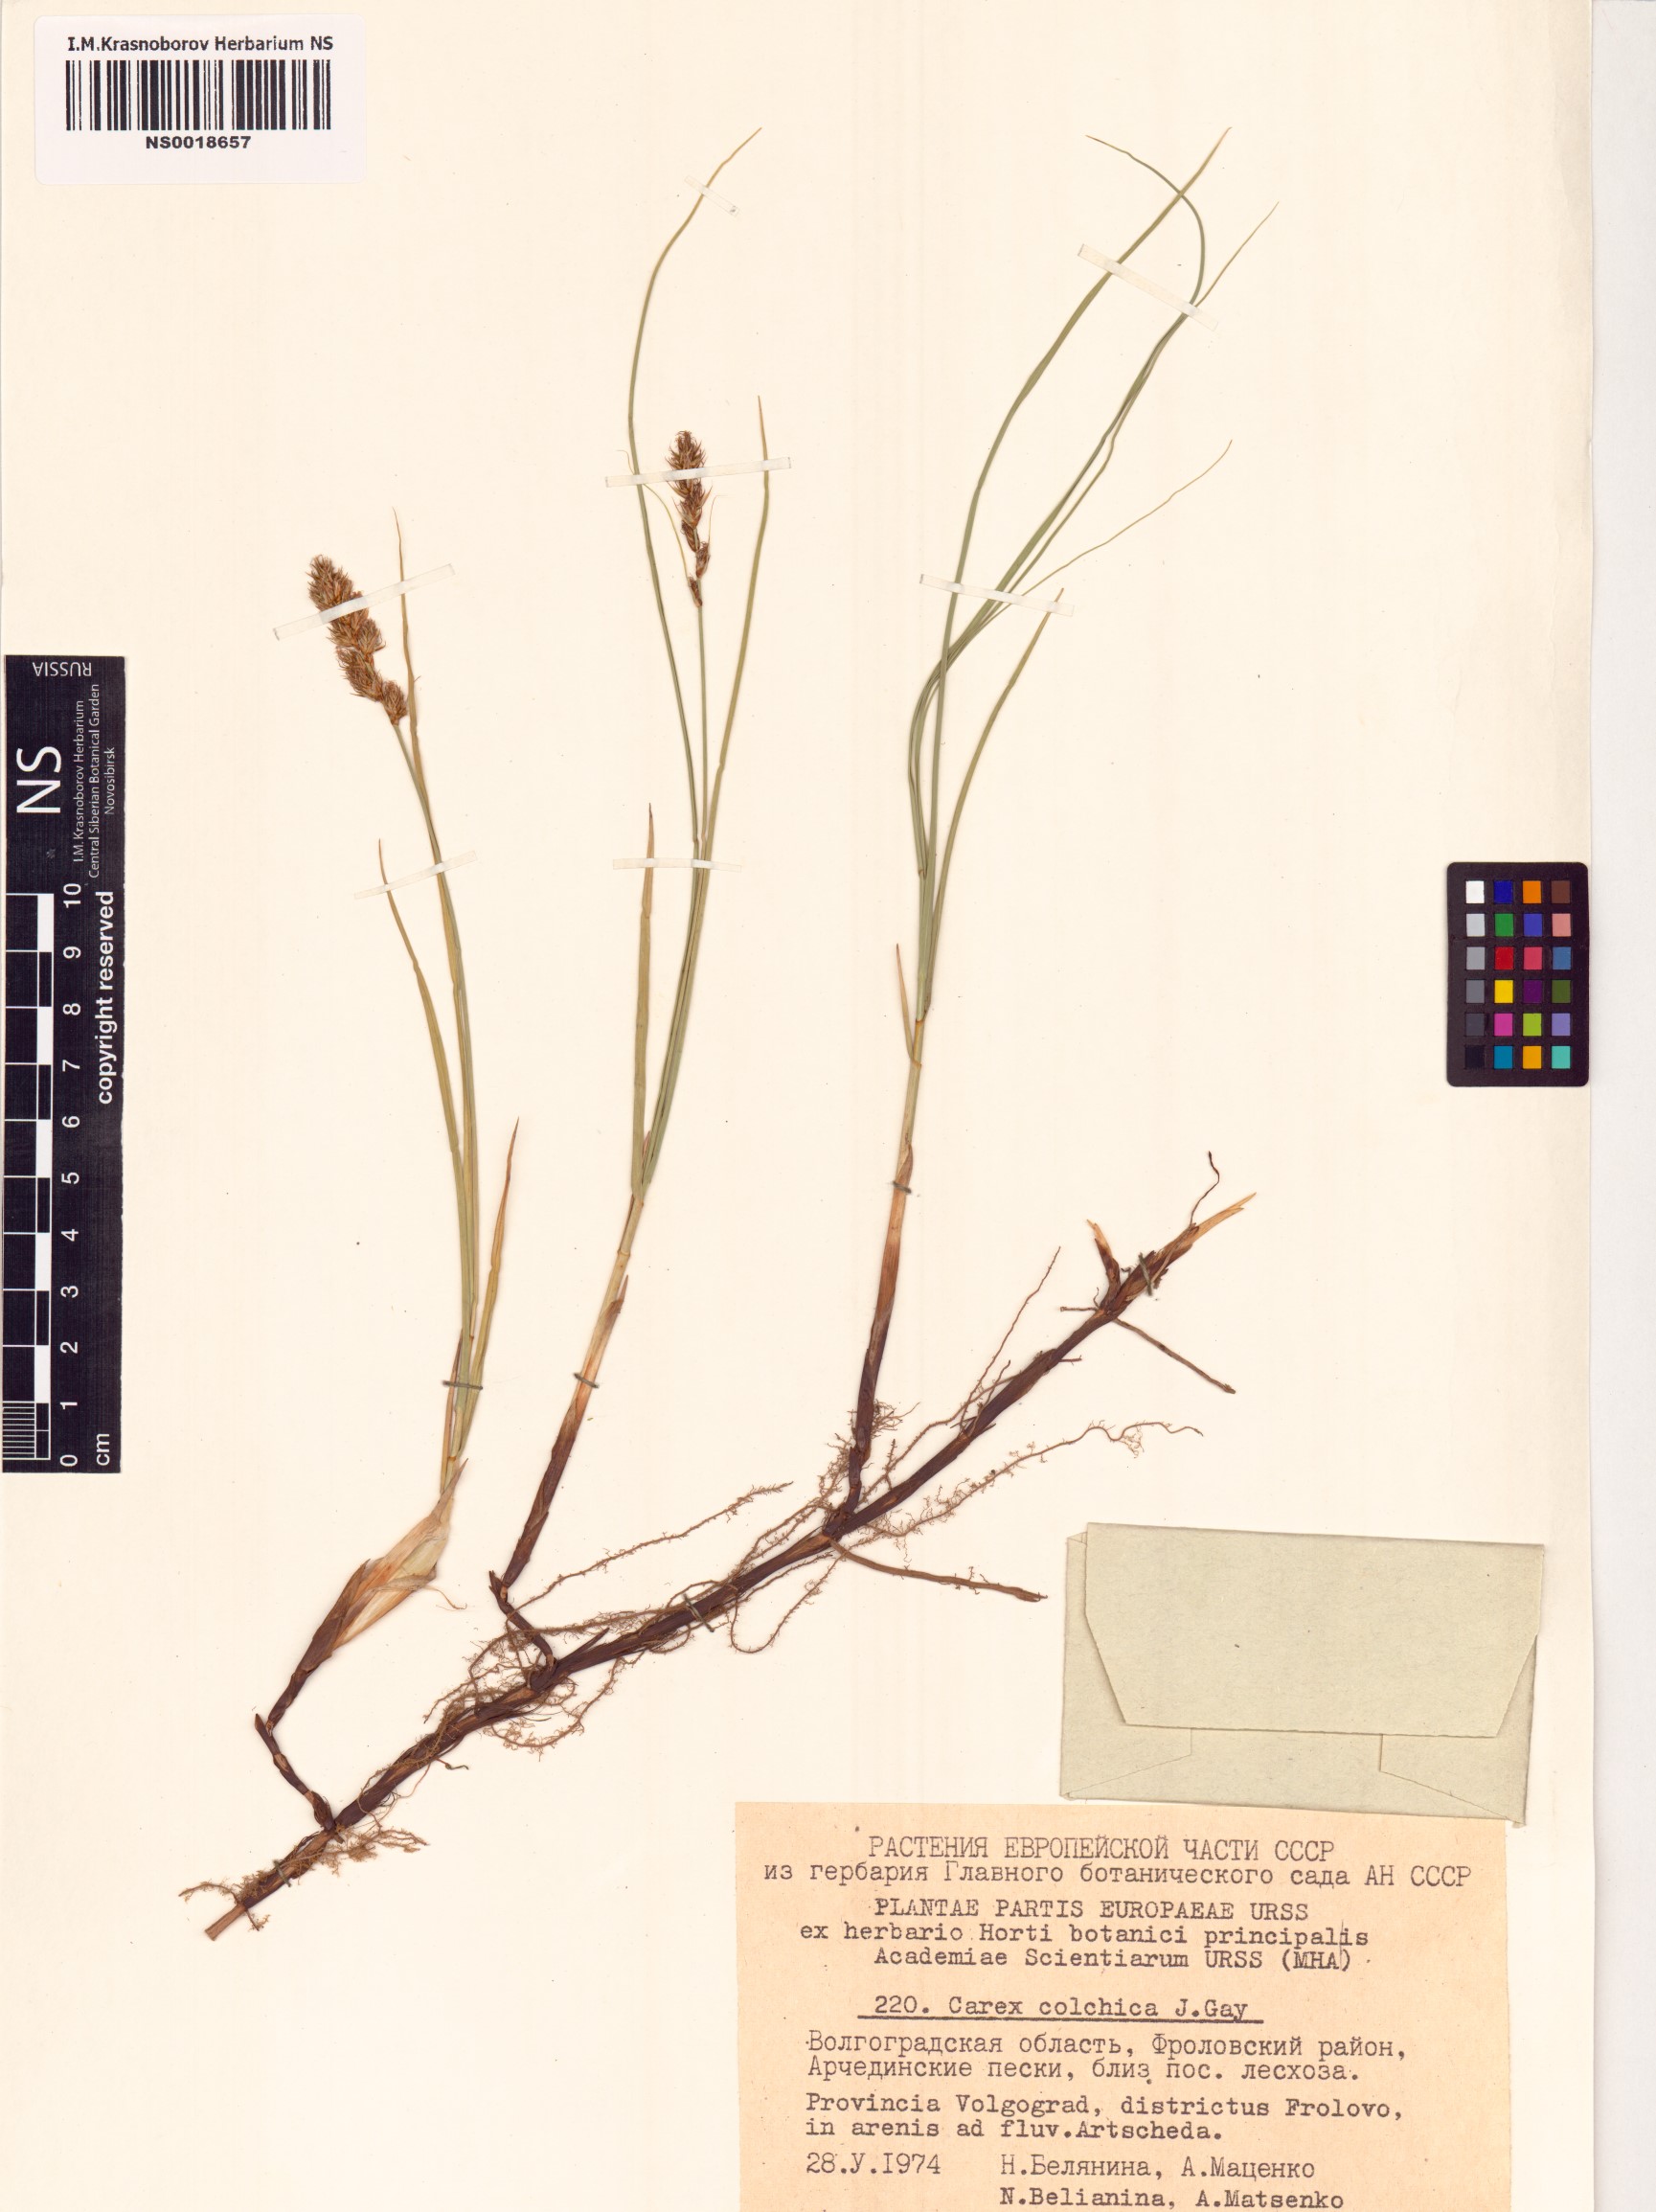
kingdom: Plantae
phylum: Tracheophyta
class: Liliopsida
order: Poales
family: Cyperaceae
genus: Carex
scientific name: Carex colchica
